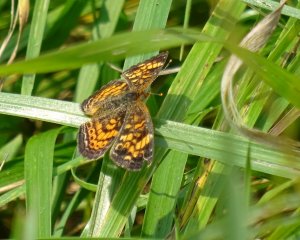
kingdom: Animalia
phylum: Arthropoda
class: Insecta
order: Lepidoptera
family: Nymphalidae
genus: Phyciodes
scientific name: Phyciodes tharos
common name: Northern Crescent
